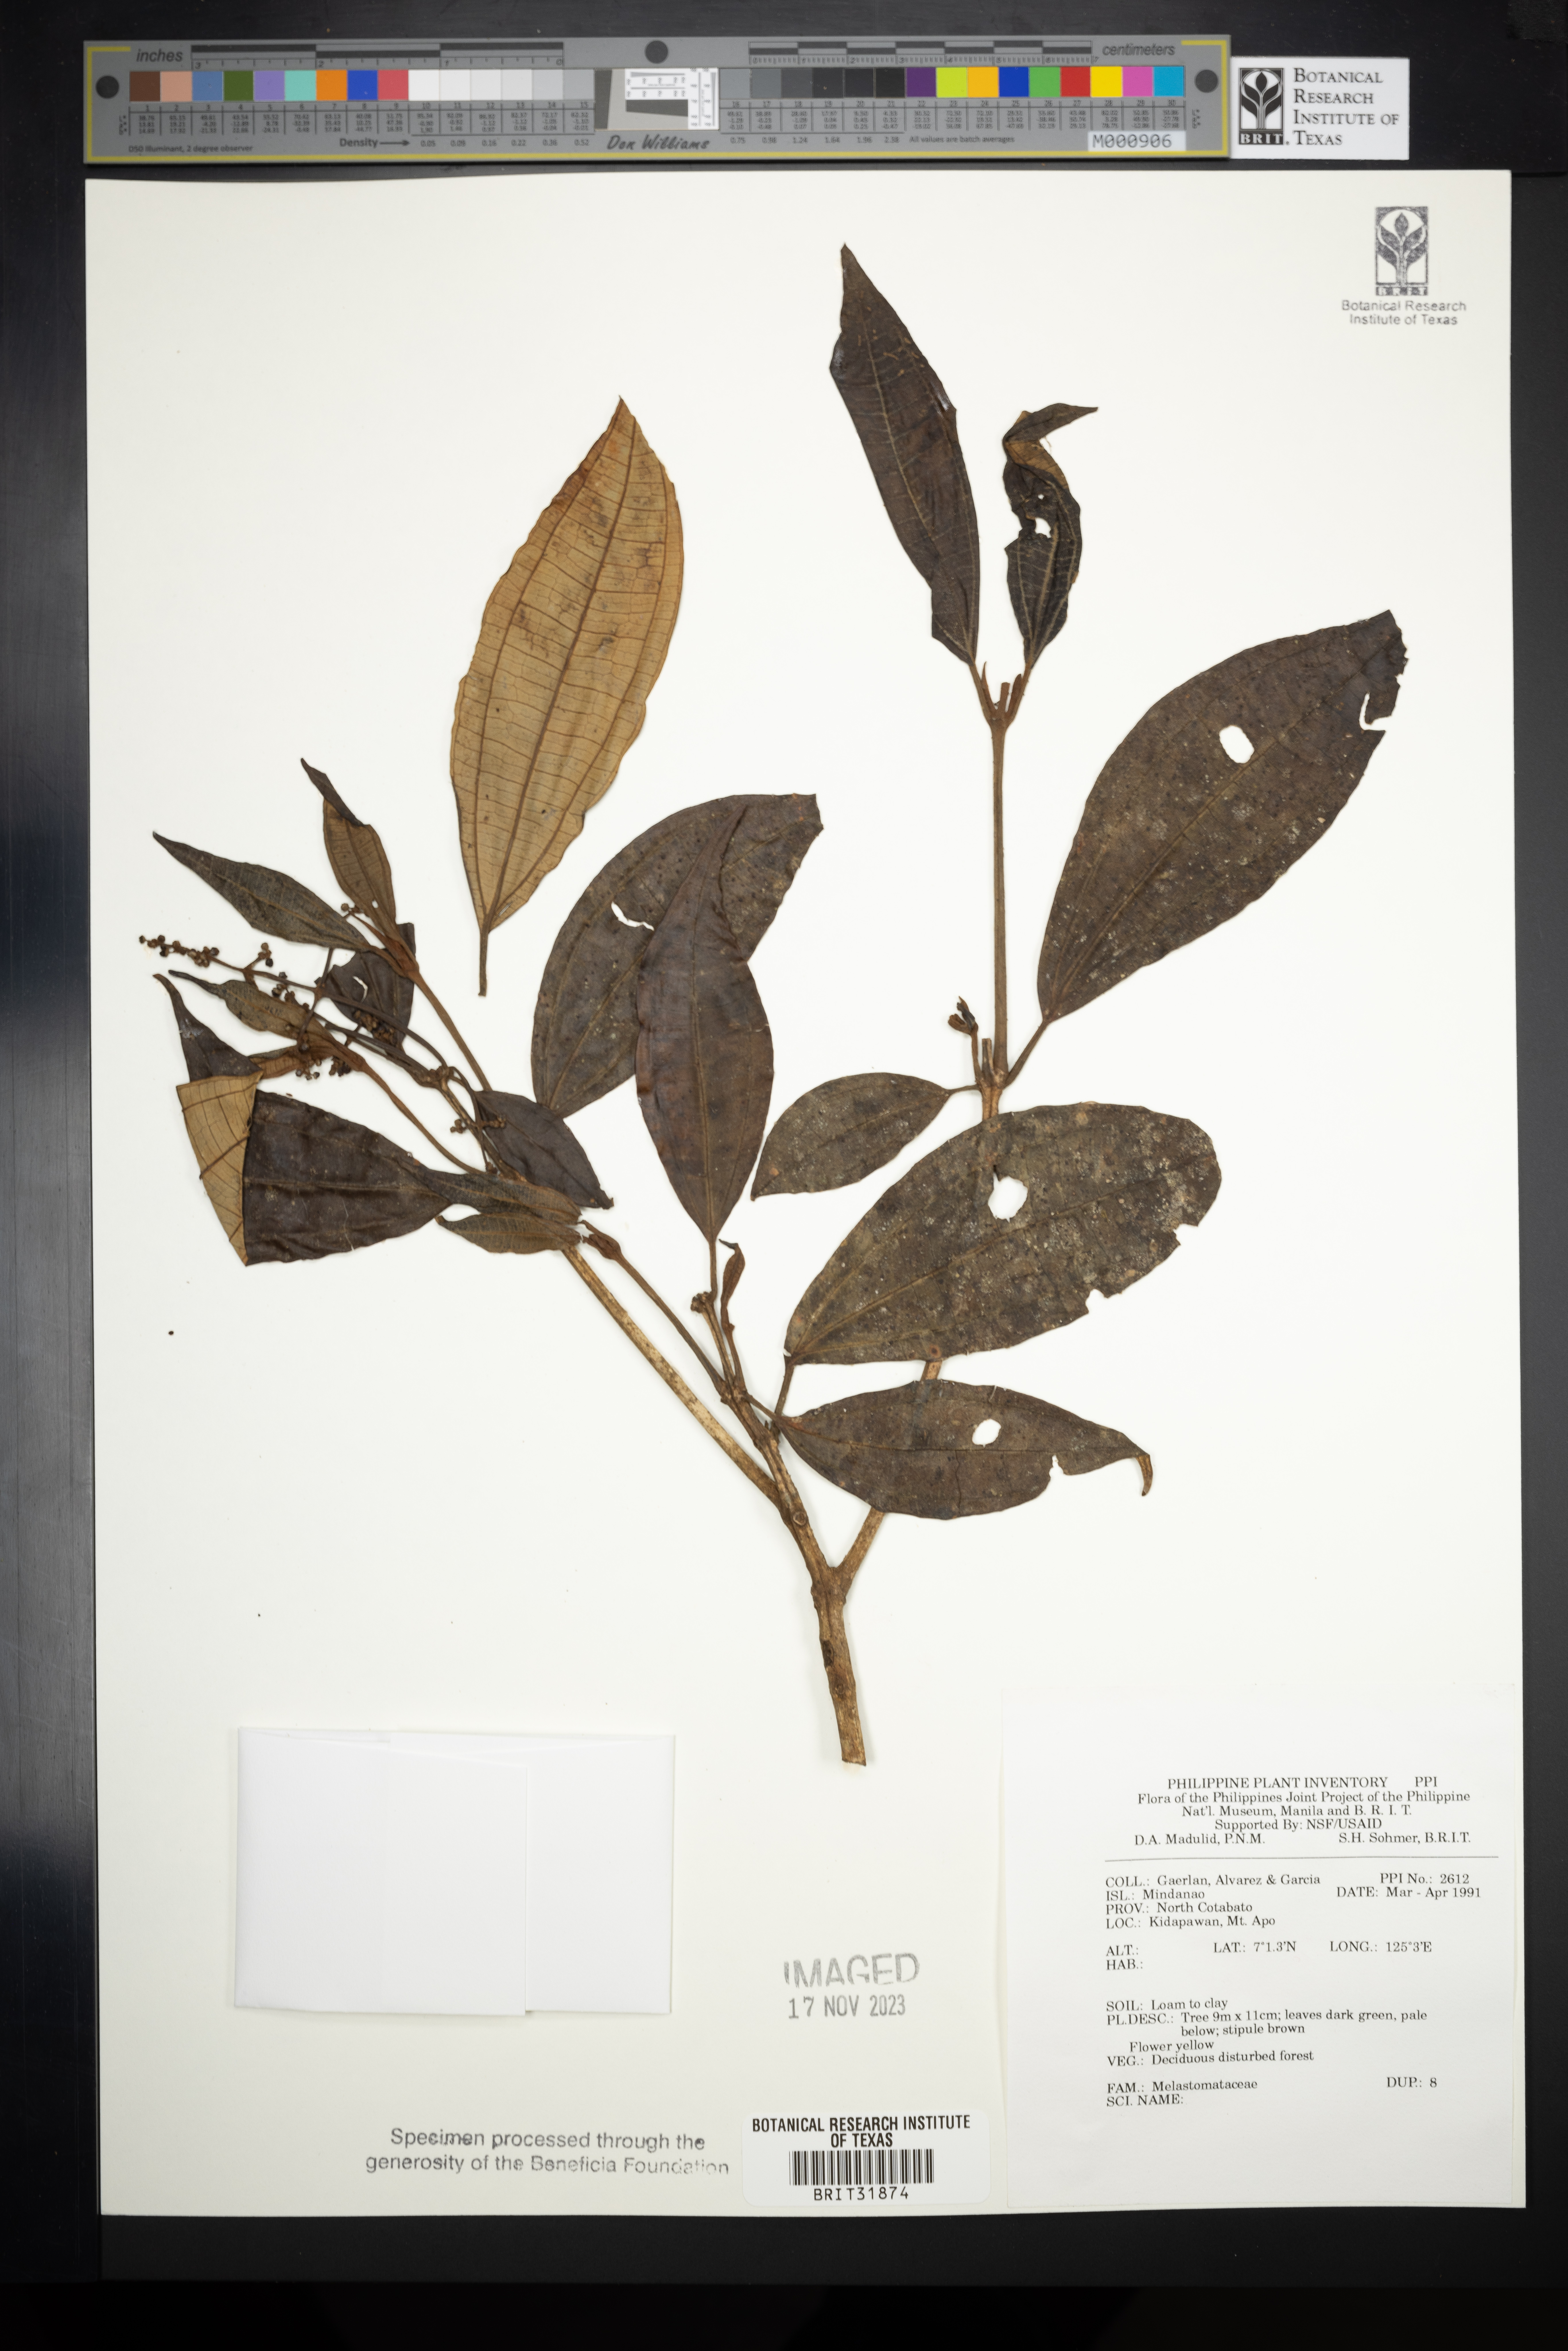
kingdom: Plantae
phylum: Tracheophyta
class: Magnoliopsida
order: Myrtales
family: Melastomataceae
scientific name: Melastomataceae
